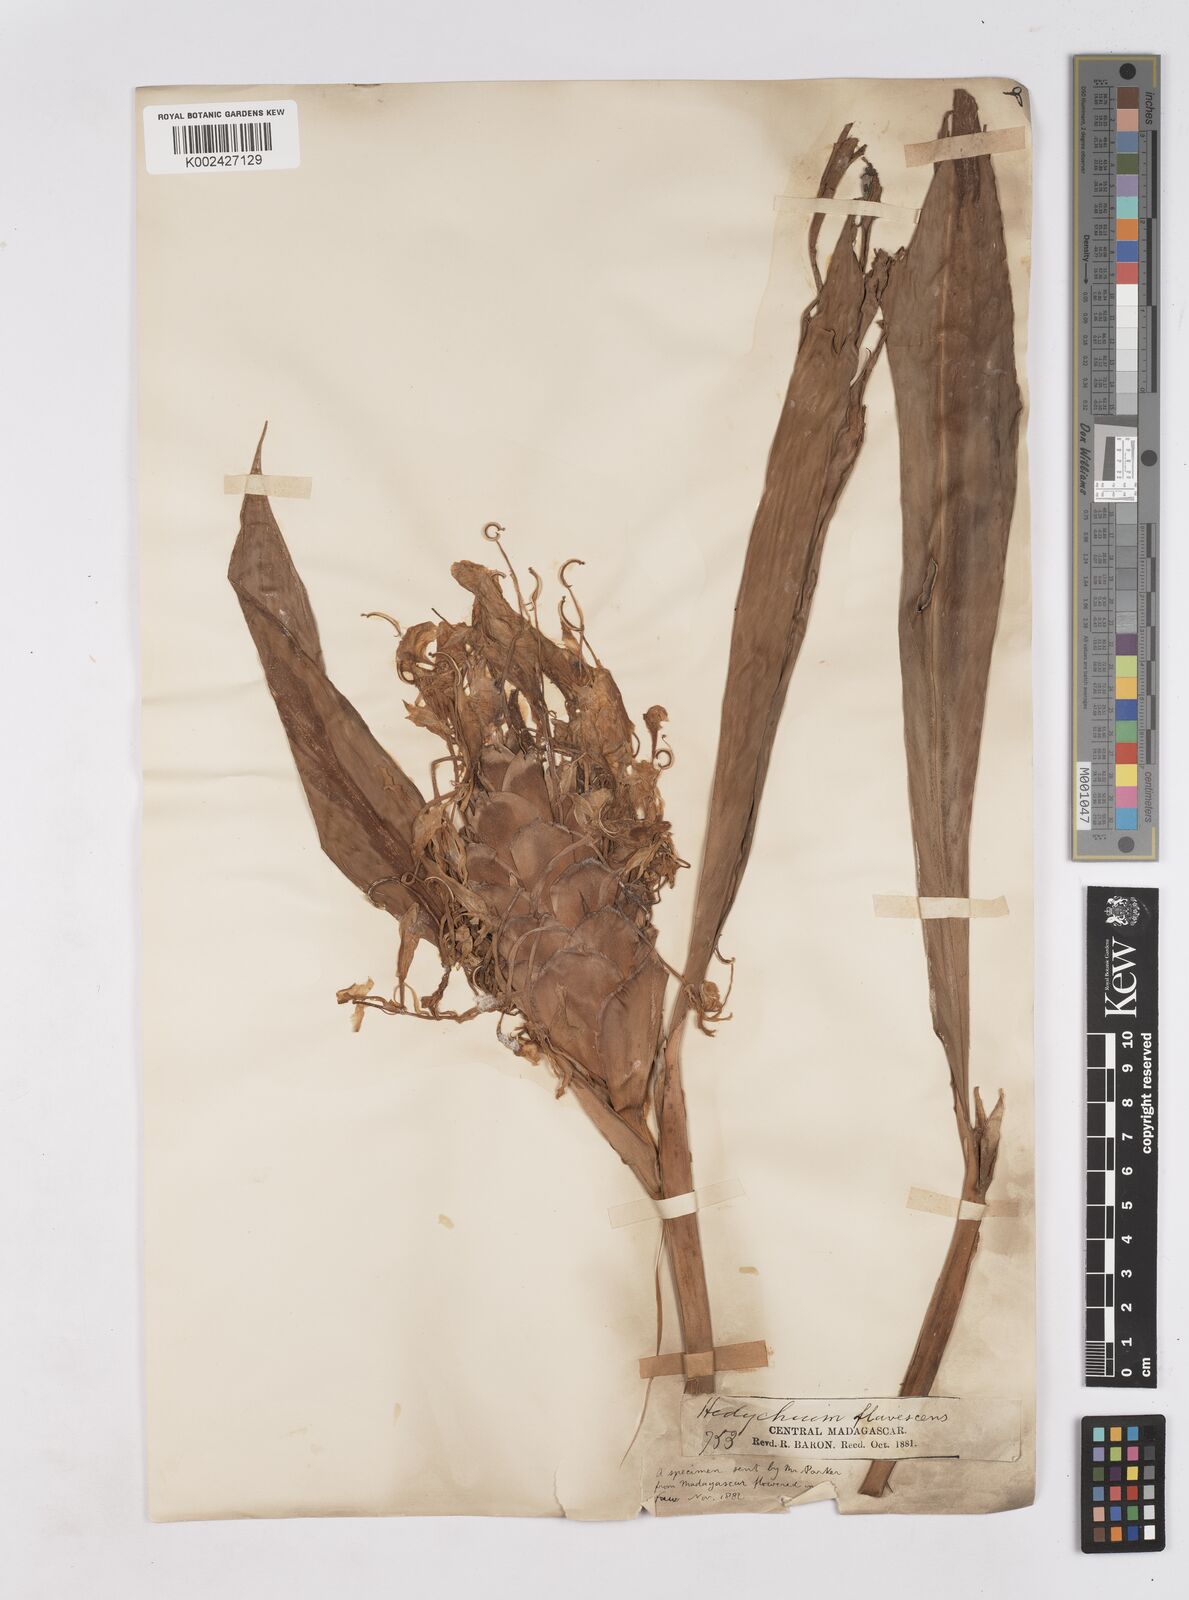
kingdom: Plantae
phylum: Tracheophyta
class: Liliopsida
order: Zingiberales
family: Zingiberaceae
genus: Hedychium
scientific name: Hedychium coronarium
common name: White garland-lily
